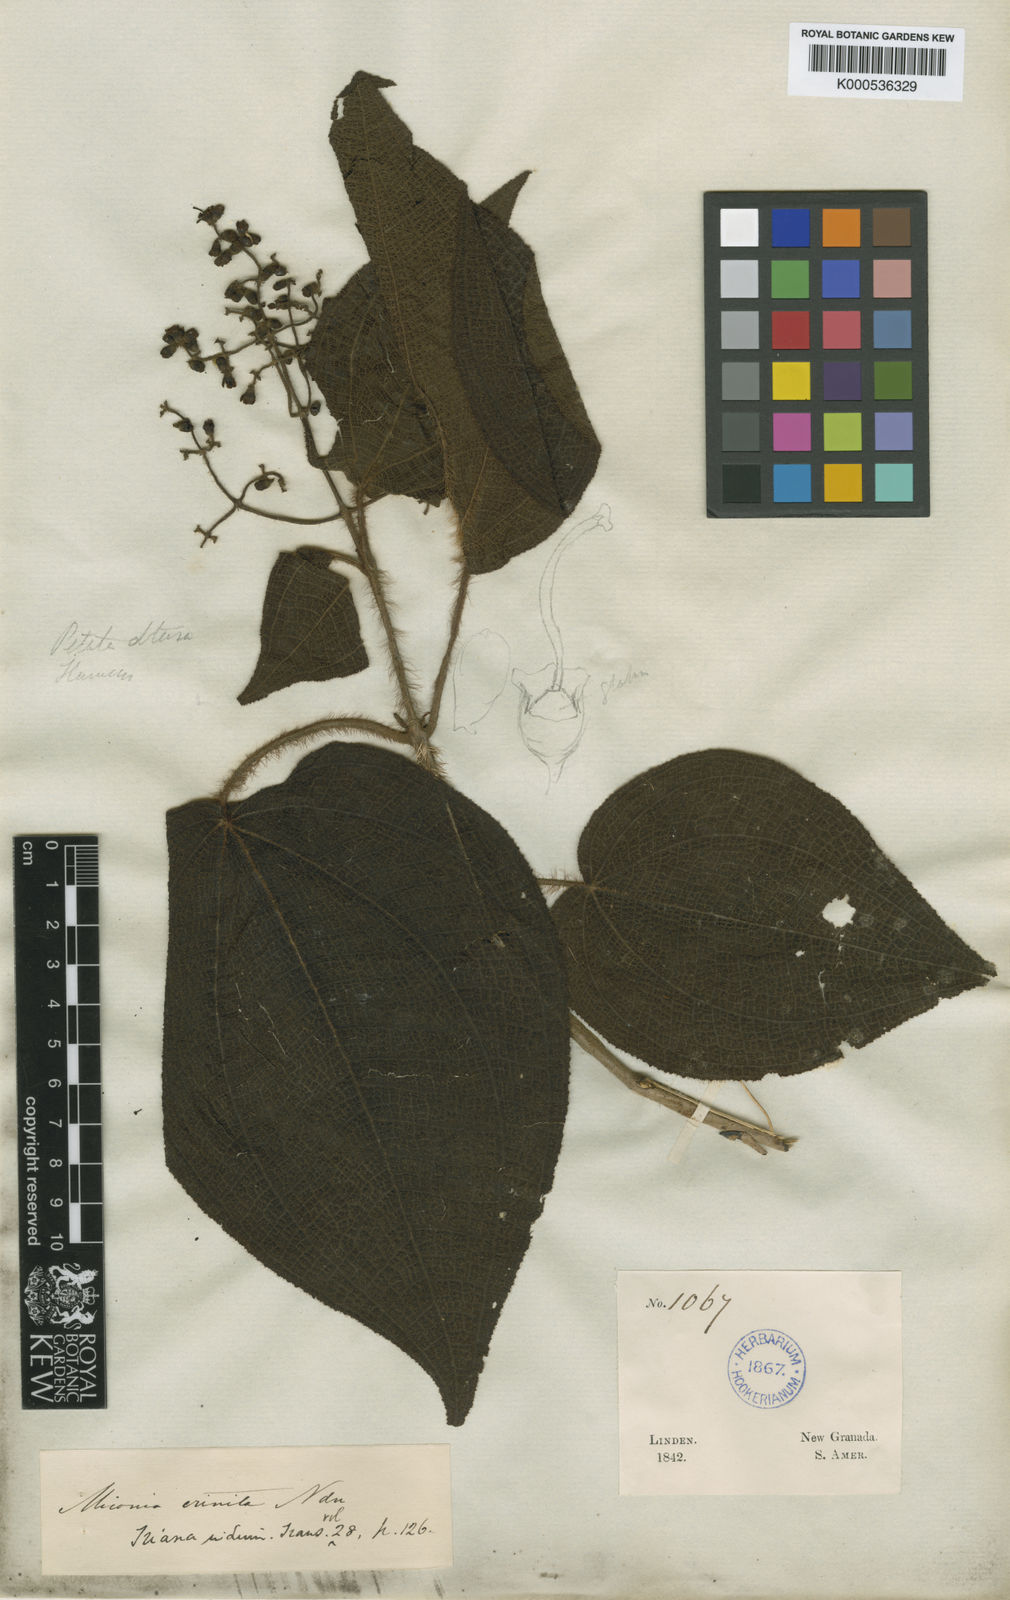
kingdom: Plantae
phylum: Tracheophyta
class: Magnoliopsida
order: Myrtales
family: Melastomataceae
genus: Miconia
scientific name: Miconia crinita
